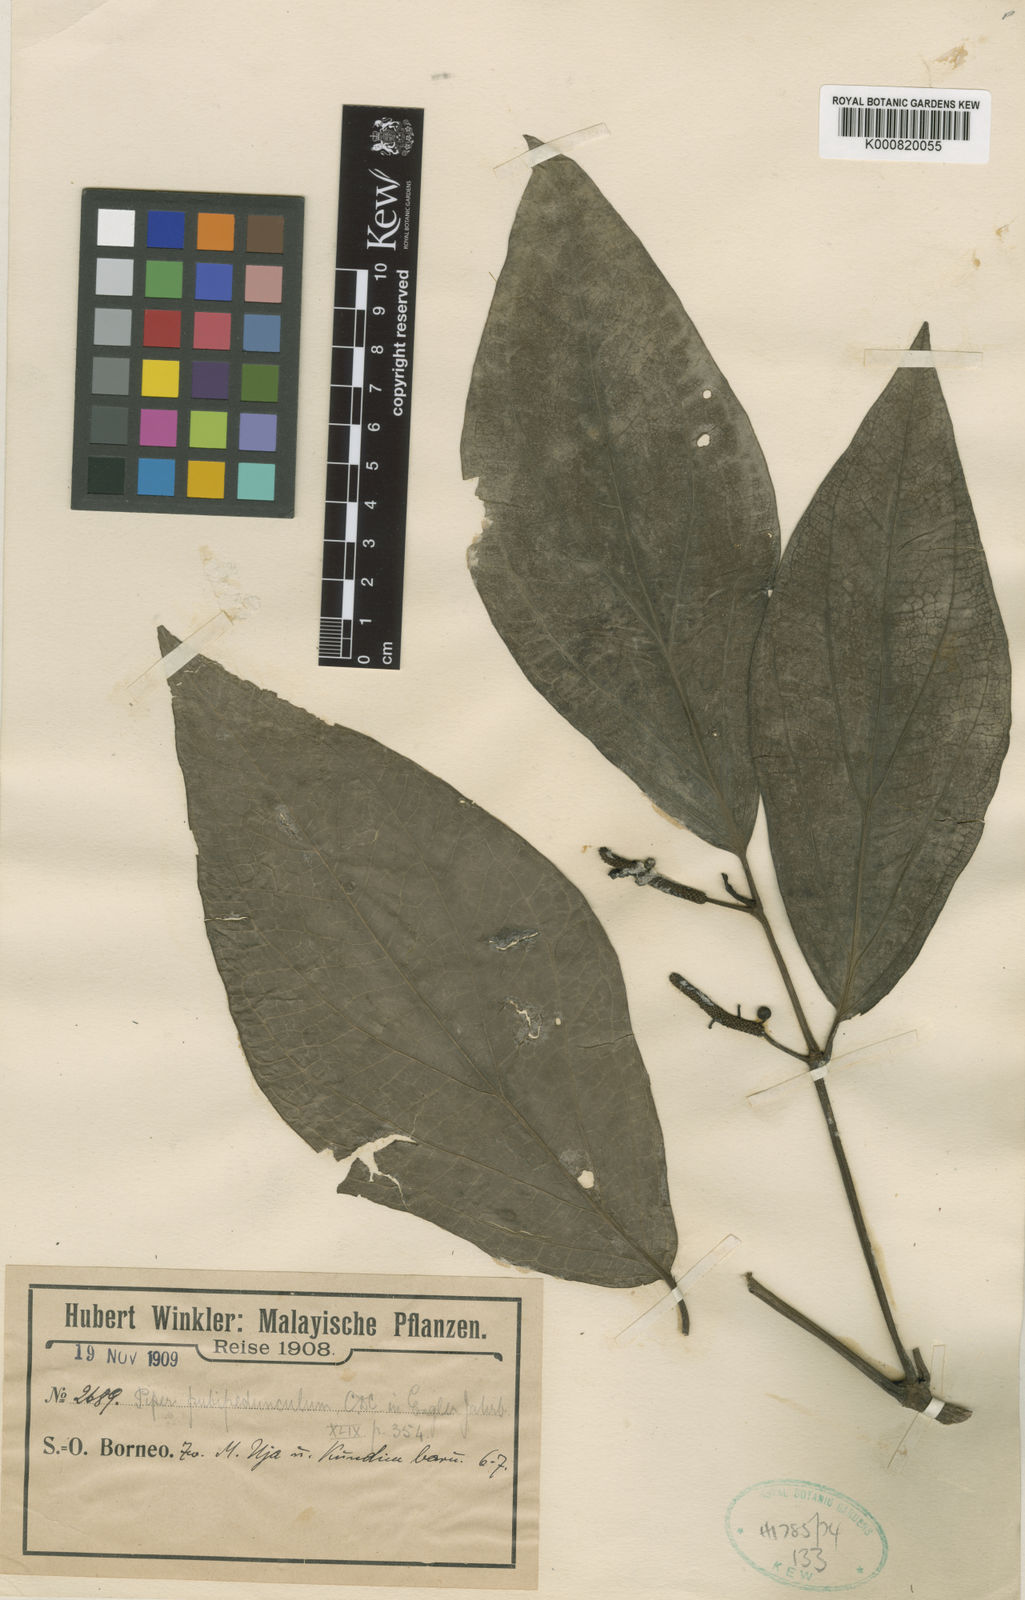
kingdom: Plantae
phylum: Tracheophyta
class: Magnoliopsida
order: Piperales
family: Piperaceae
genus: Piper
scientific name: Piper pubipedunculum
